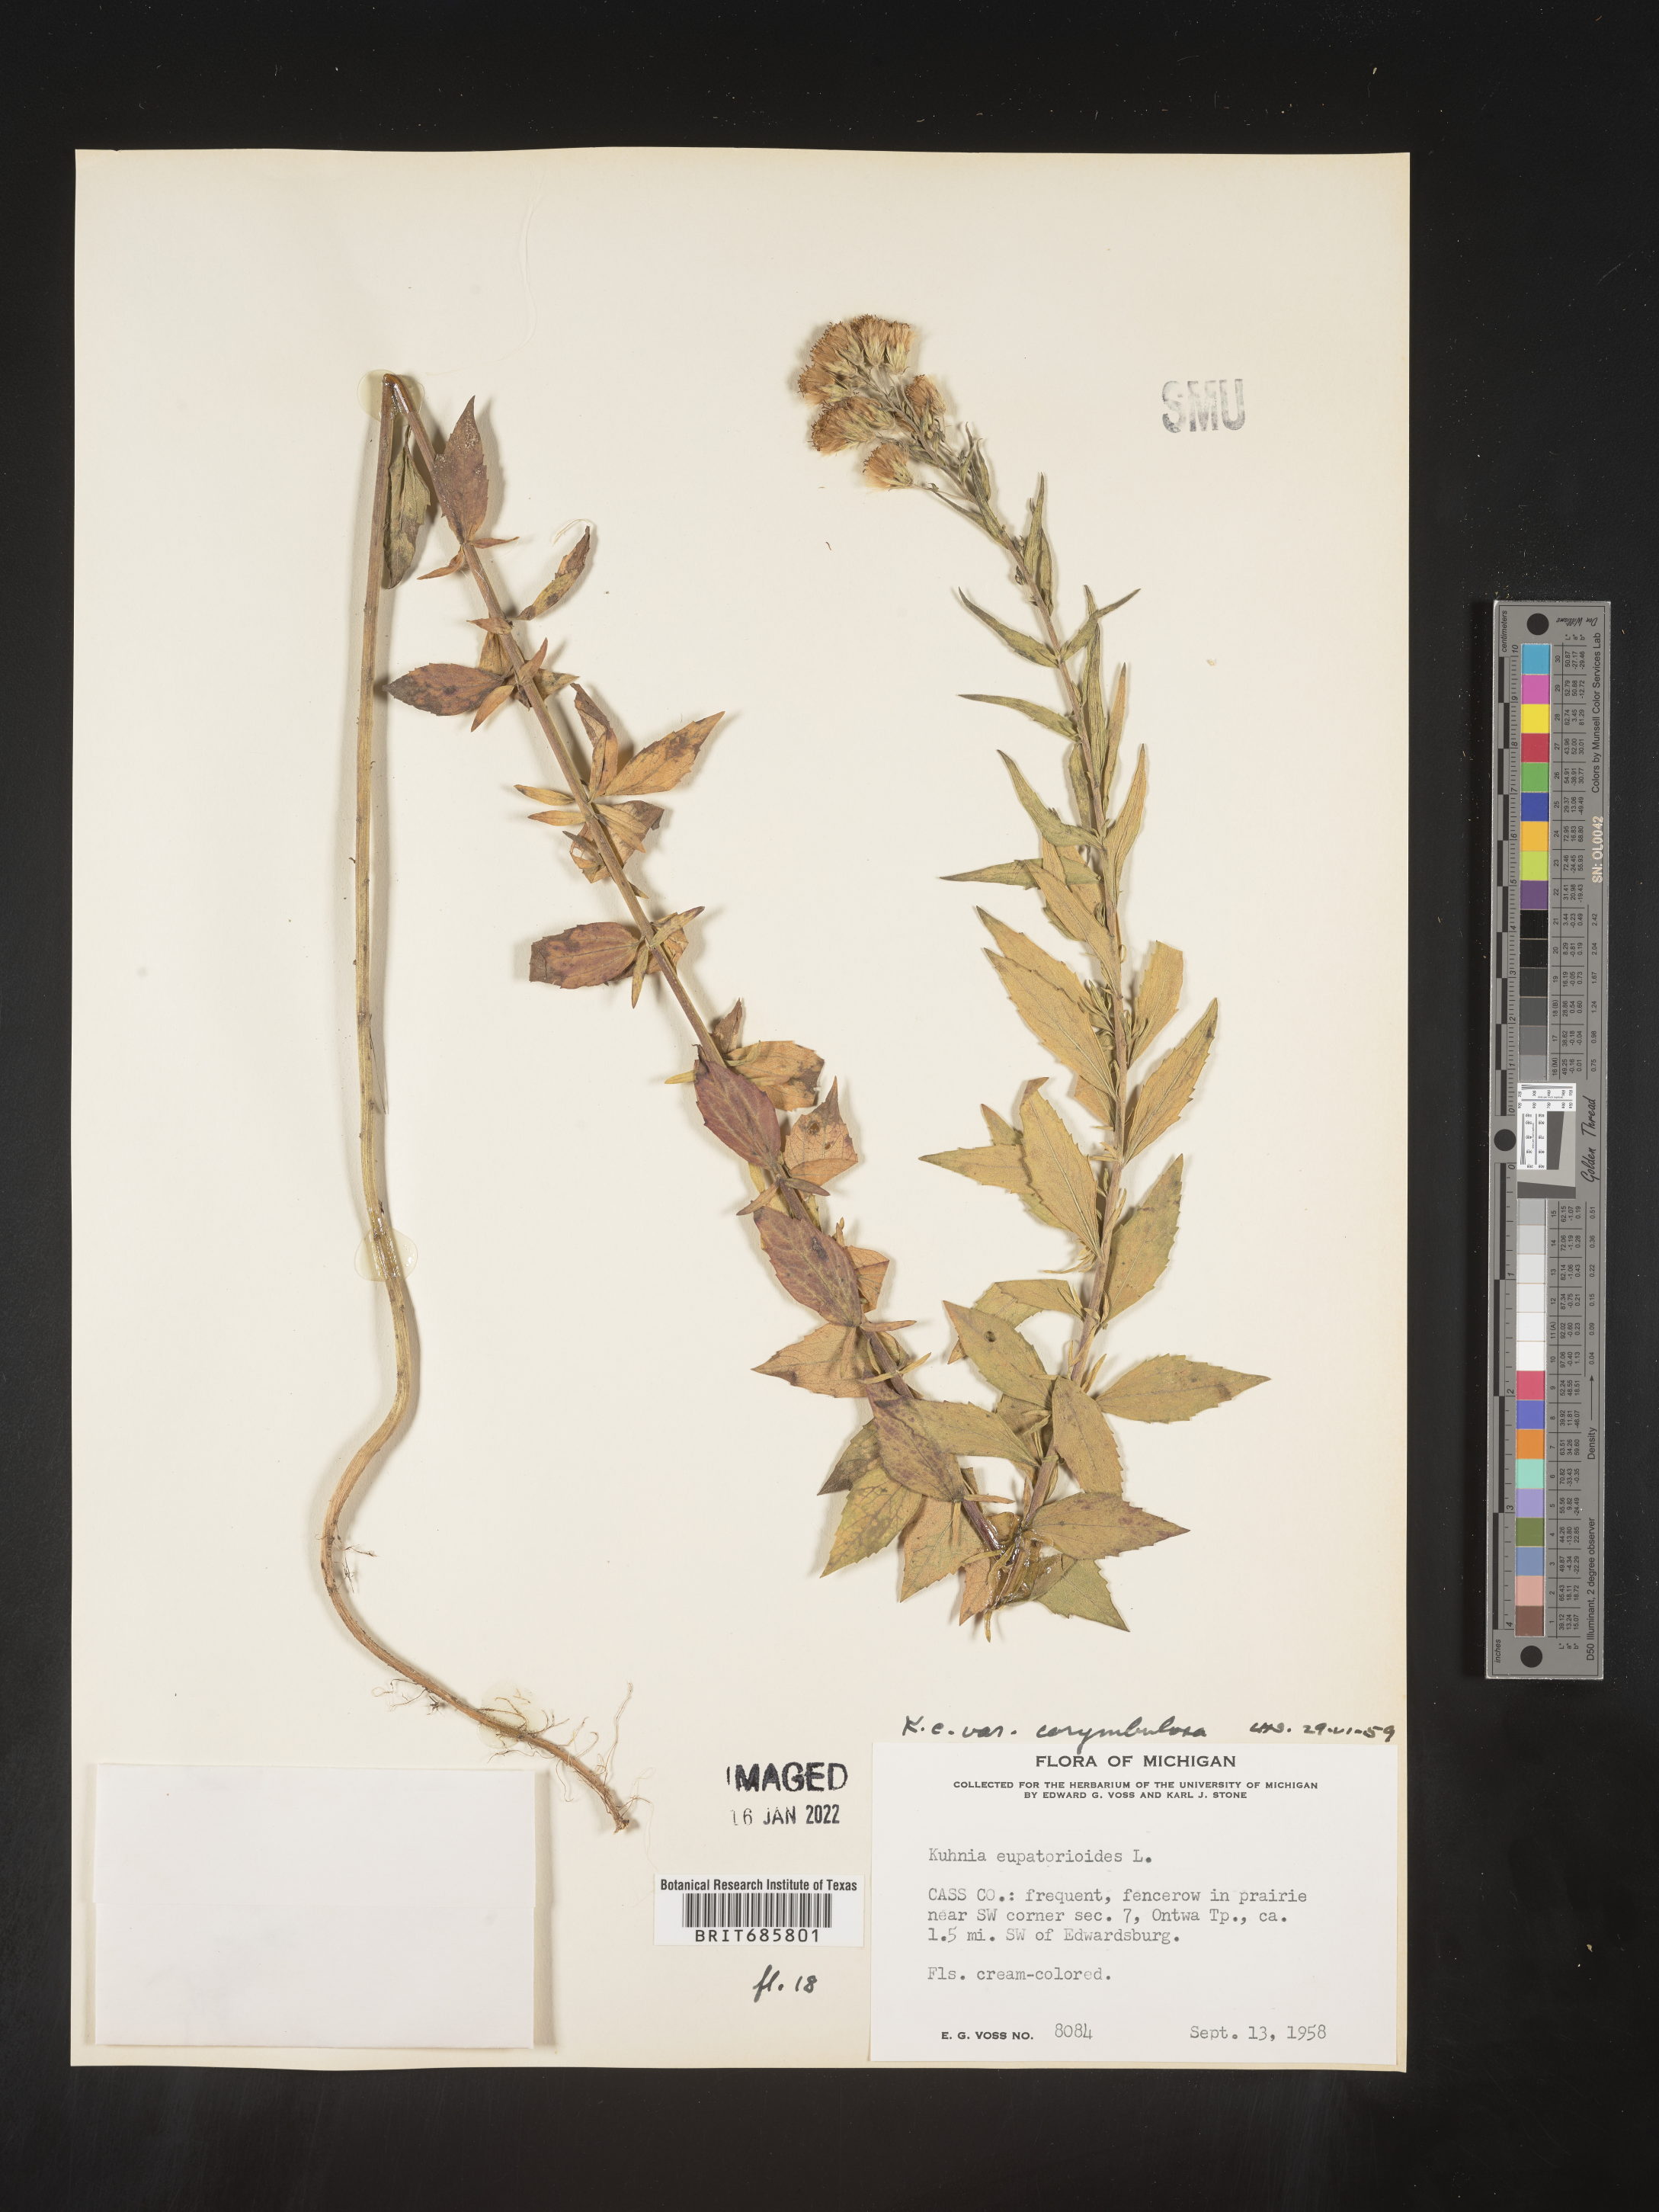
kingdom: Plantae
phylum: Tracheophyta
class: Magnoliopsida
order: Asterales
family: Asteraceae
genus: Brickellia
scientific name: Brickellia eupatorioides
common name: False boneset
